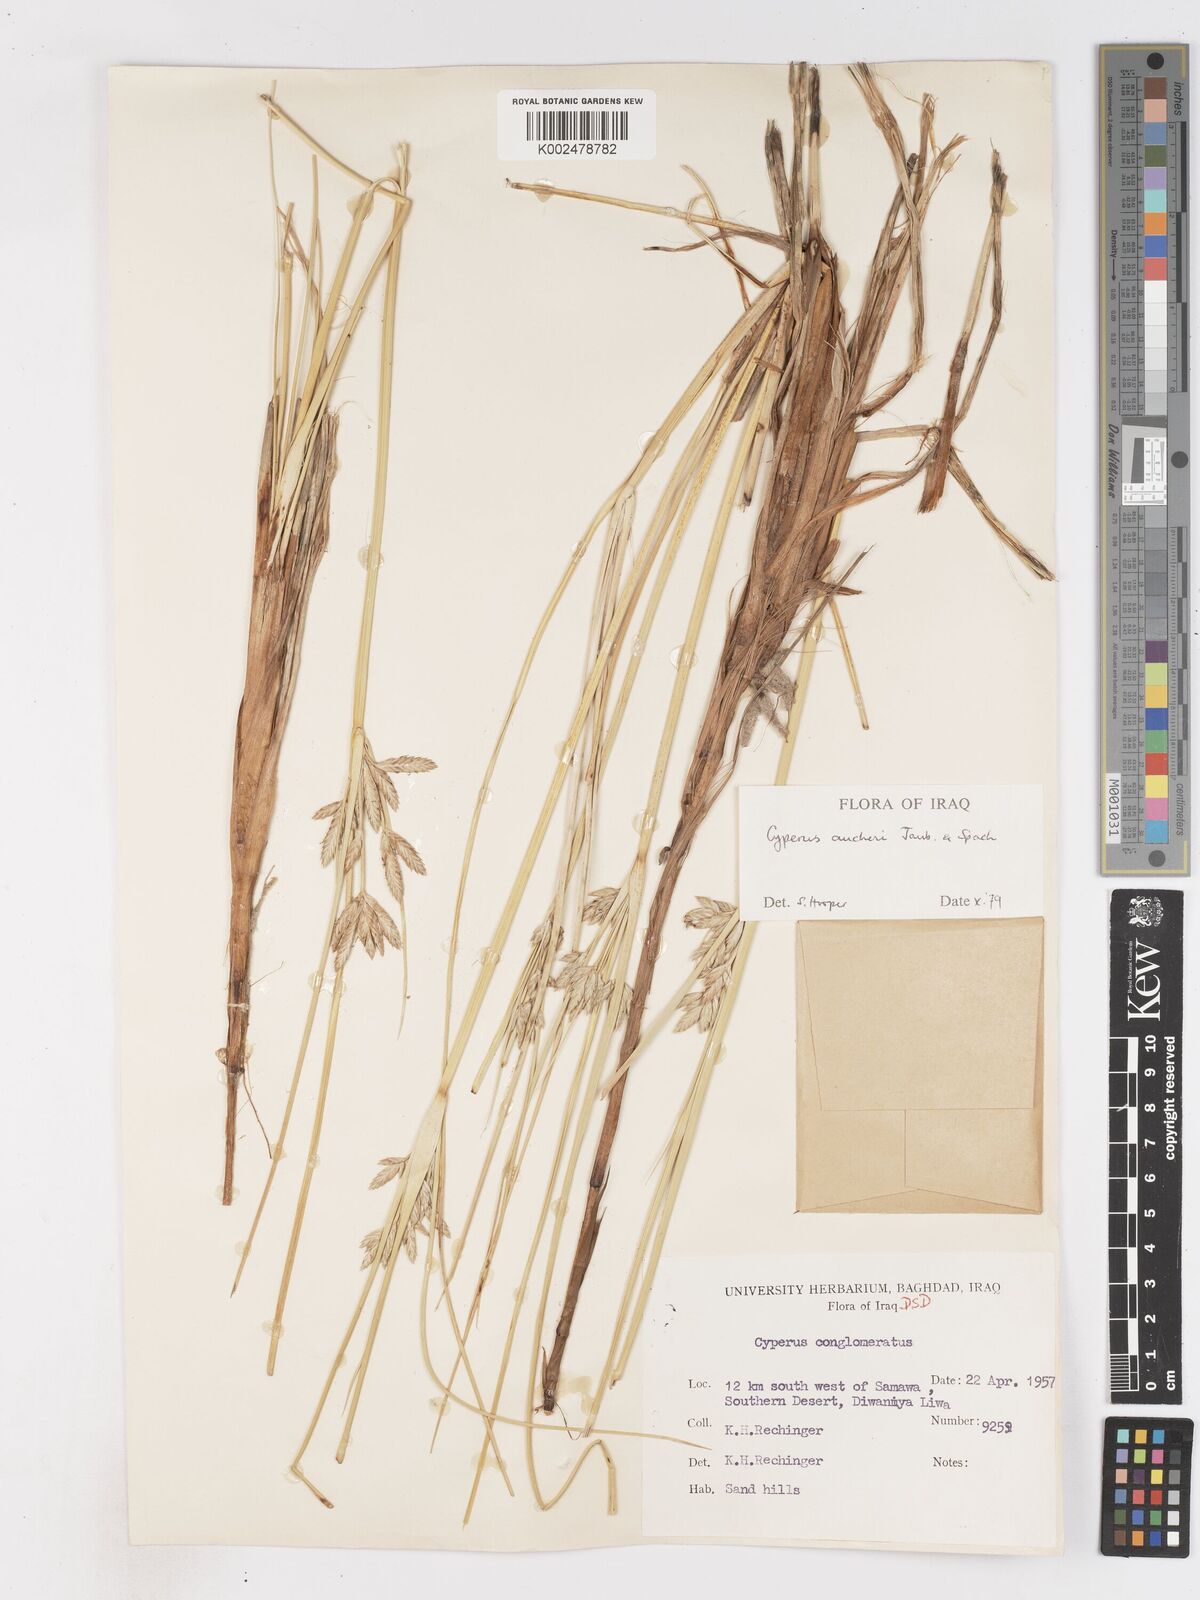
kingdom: Plantae
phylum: Tracheophyta
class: Liliopsida
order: Poales
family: Cyperaceae
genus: Cyperus
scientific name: Cyperus aucheri
